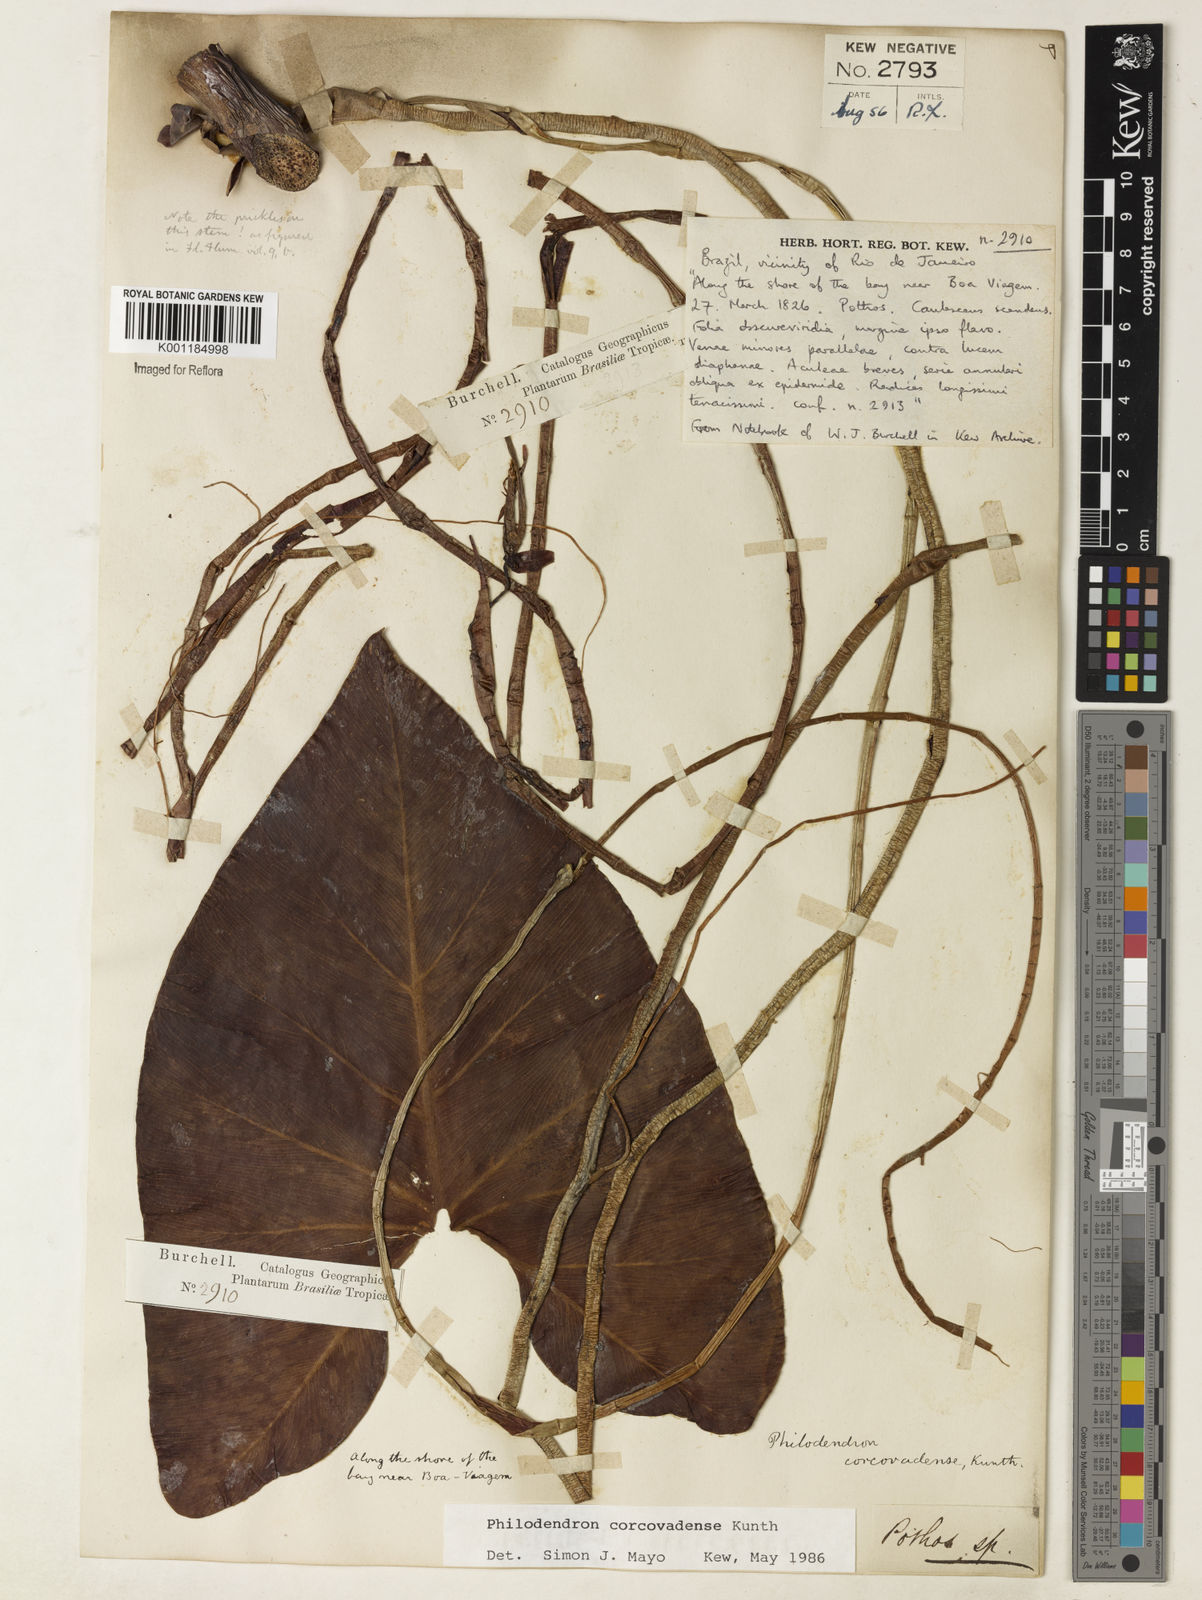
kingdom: Plantae
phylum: Tracheophyta
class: Liliopsida
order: Alismatales
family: Araceae
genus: Thaumatophyllum
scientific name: Thaumatophyllum corcovadense
